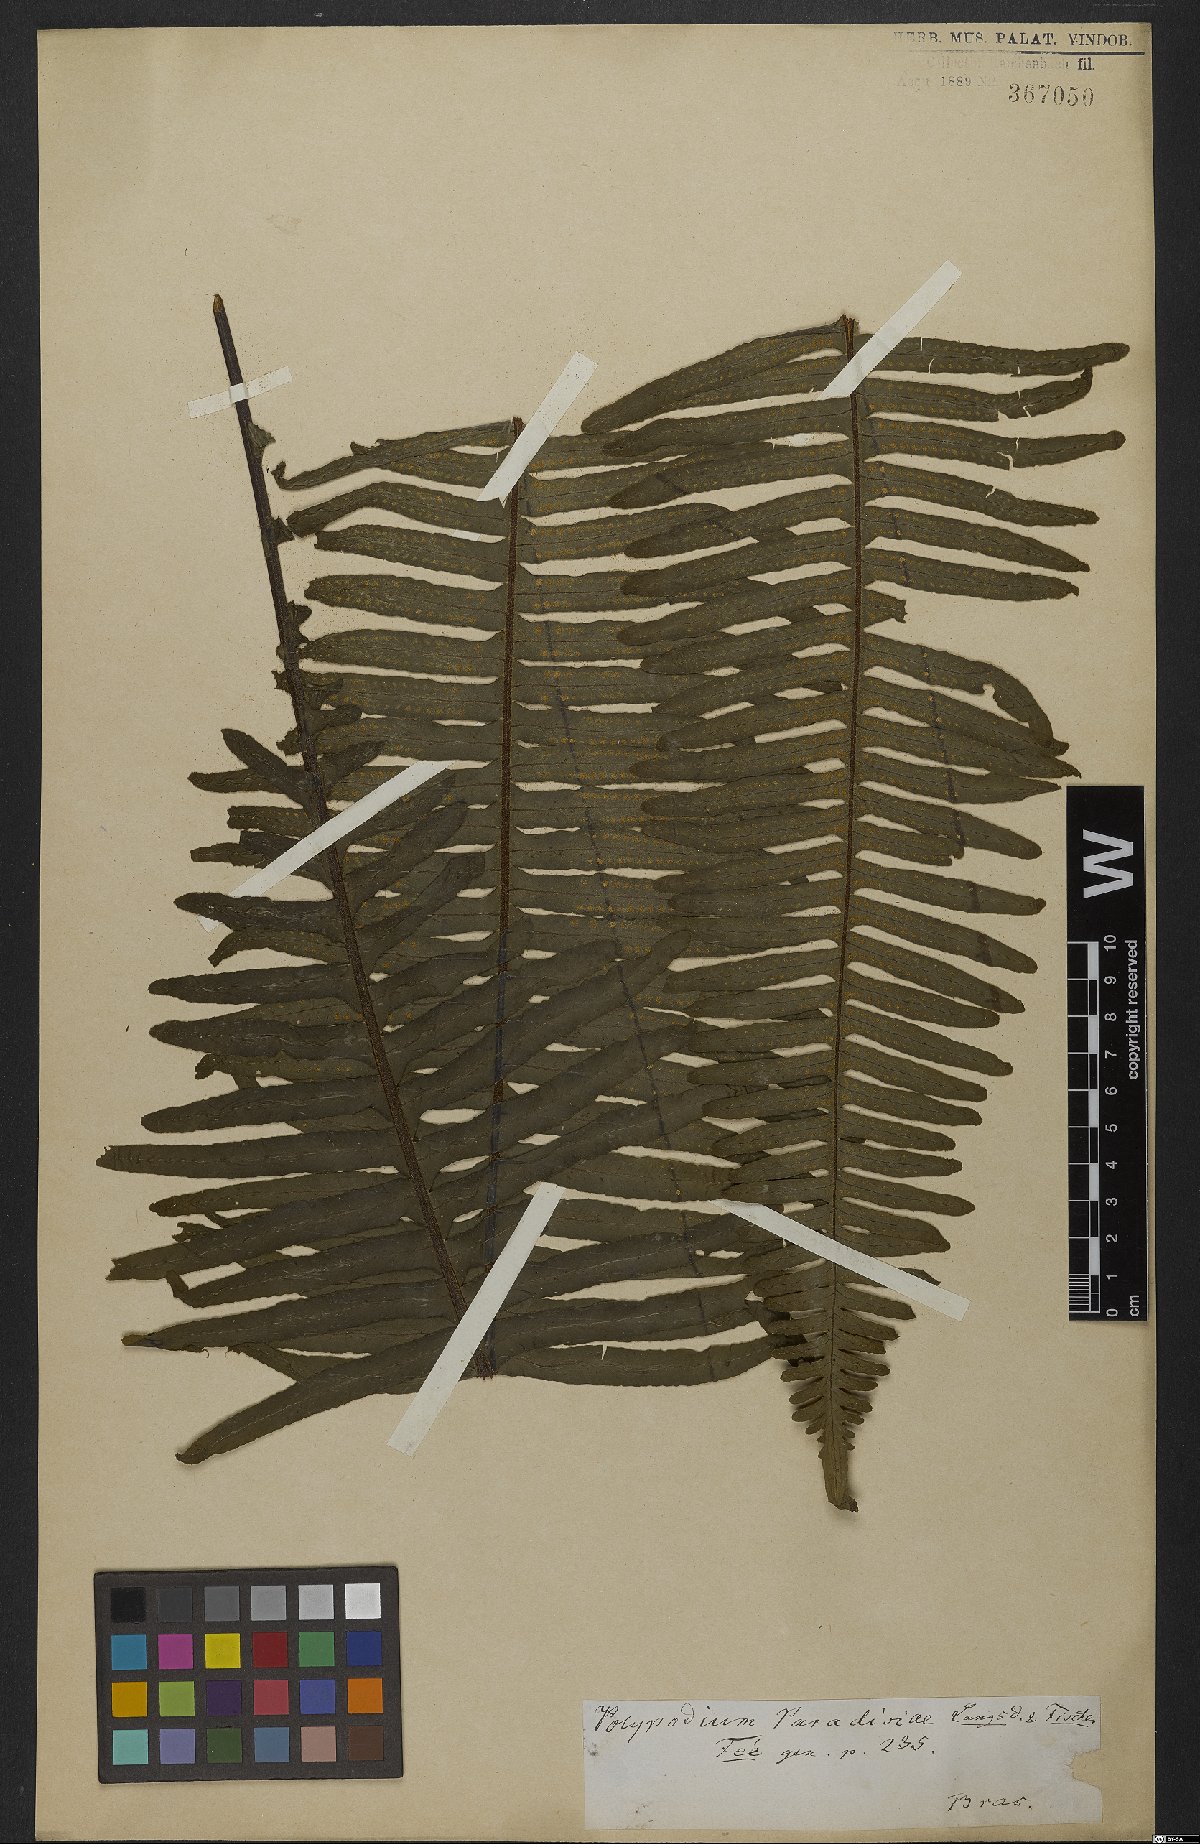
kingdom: Plantae
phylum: Tracheophyta
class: Polypodiopsida
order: Polypodiales
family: Polypodiaceae
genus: Pecluma
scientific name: Pecluma paradiseae
